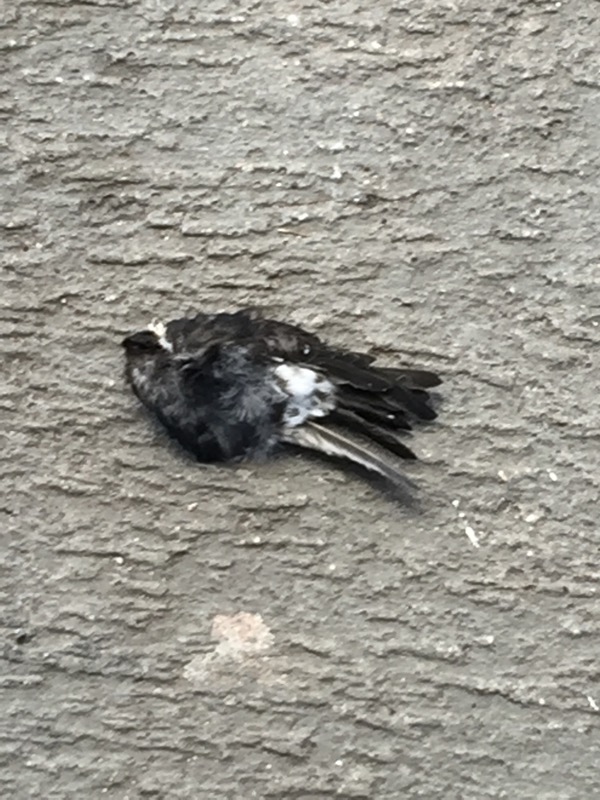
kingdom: Animalia
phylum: Chordata
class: Aves
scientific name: Aves
